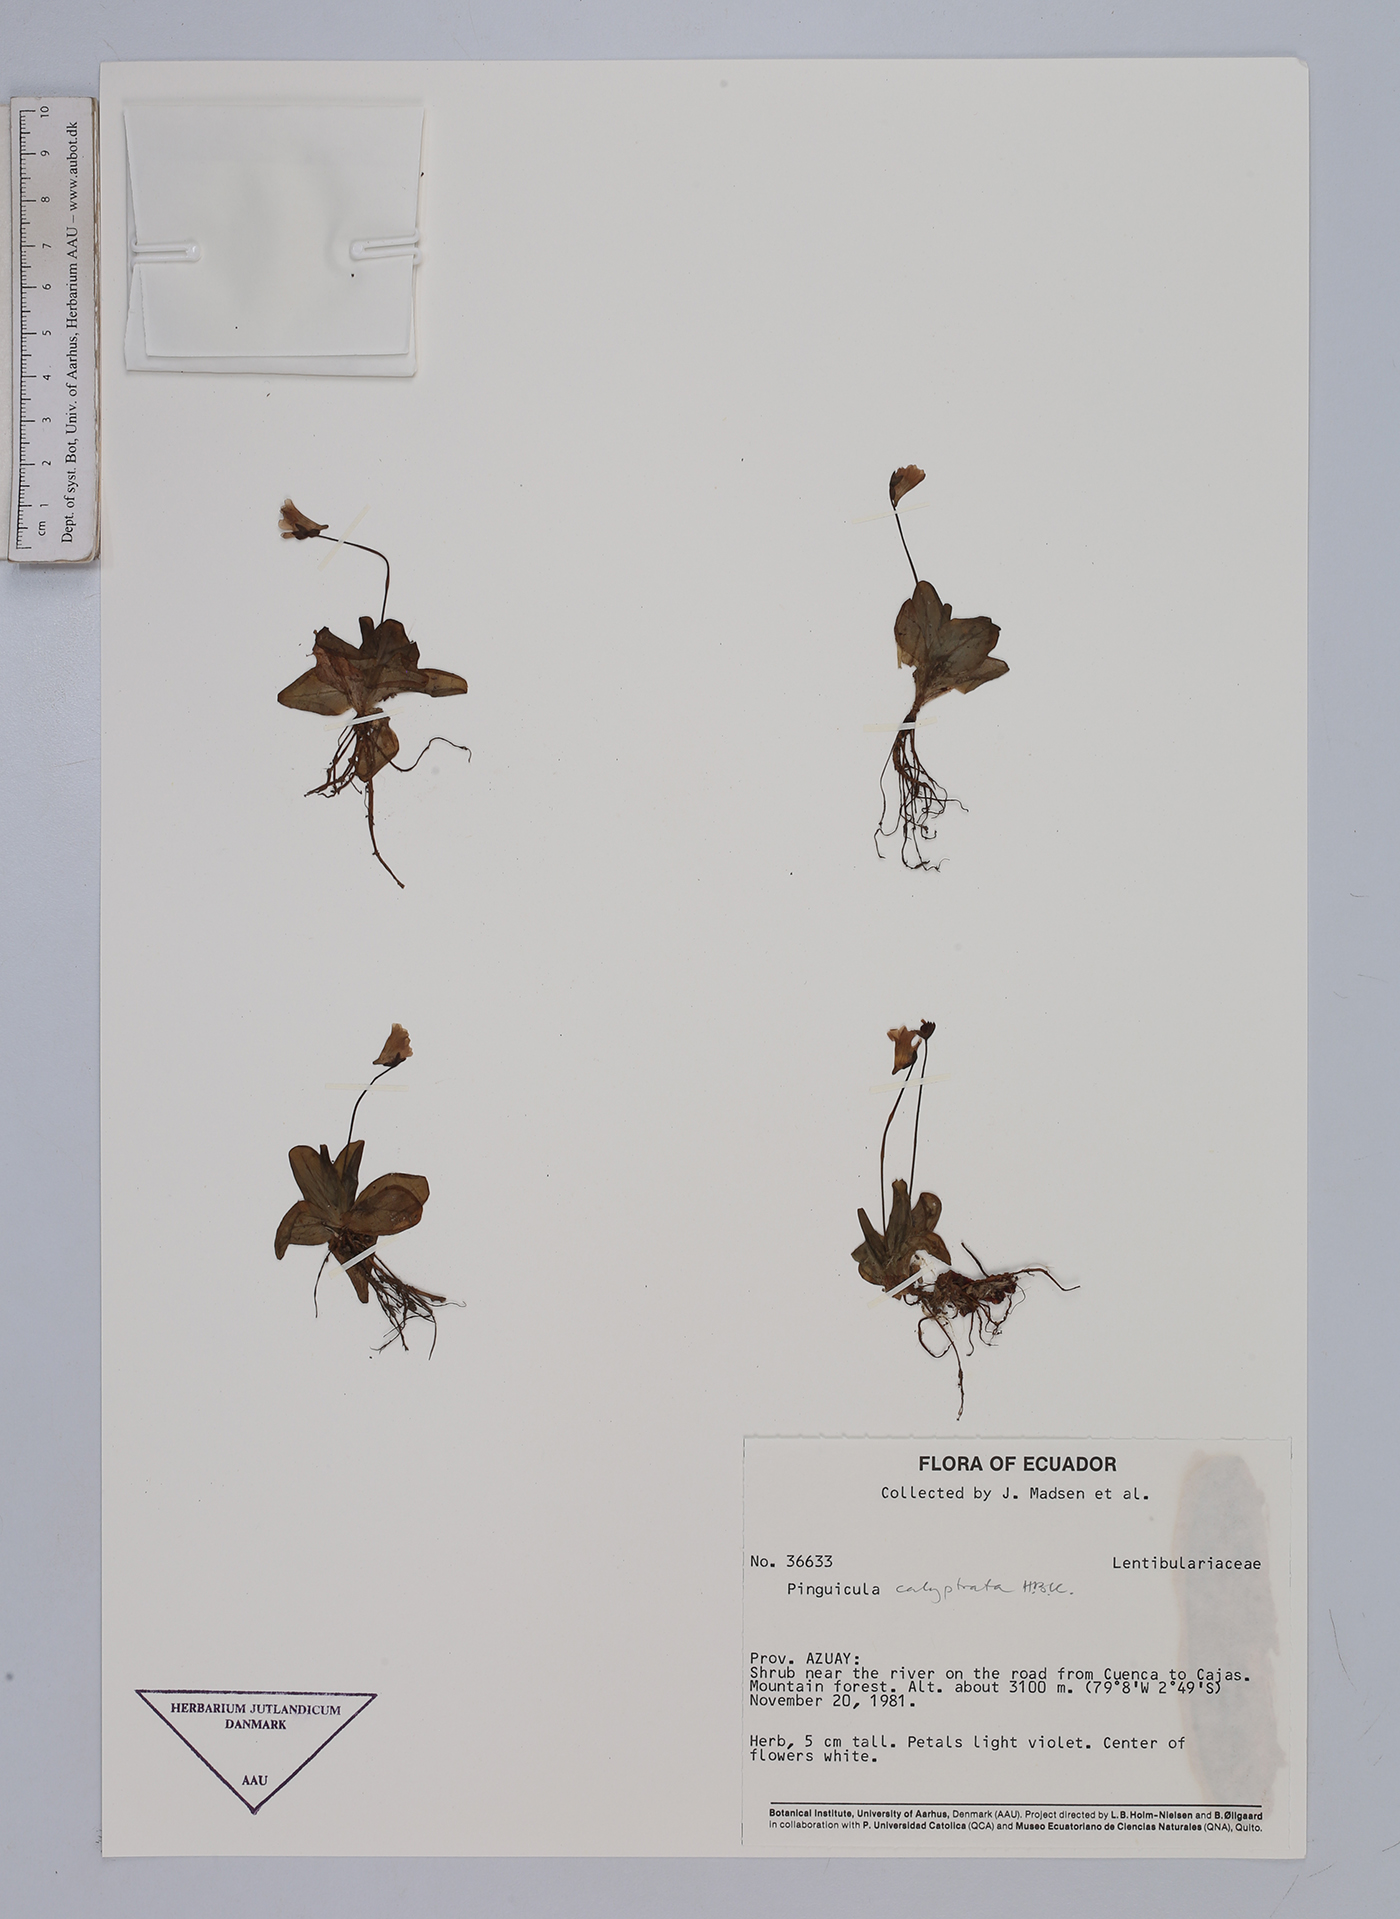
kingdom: Plantae
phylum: Tracheophyta
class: Magnoliopsida
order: Lamiales
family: Lentibulariaceae
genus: Pinguicula
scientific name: Pinguicula calyptrata
